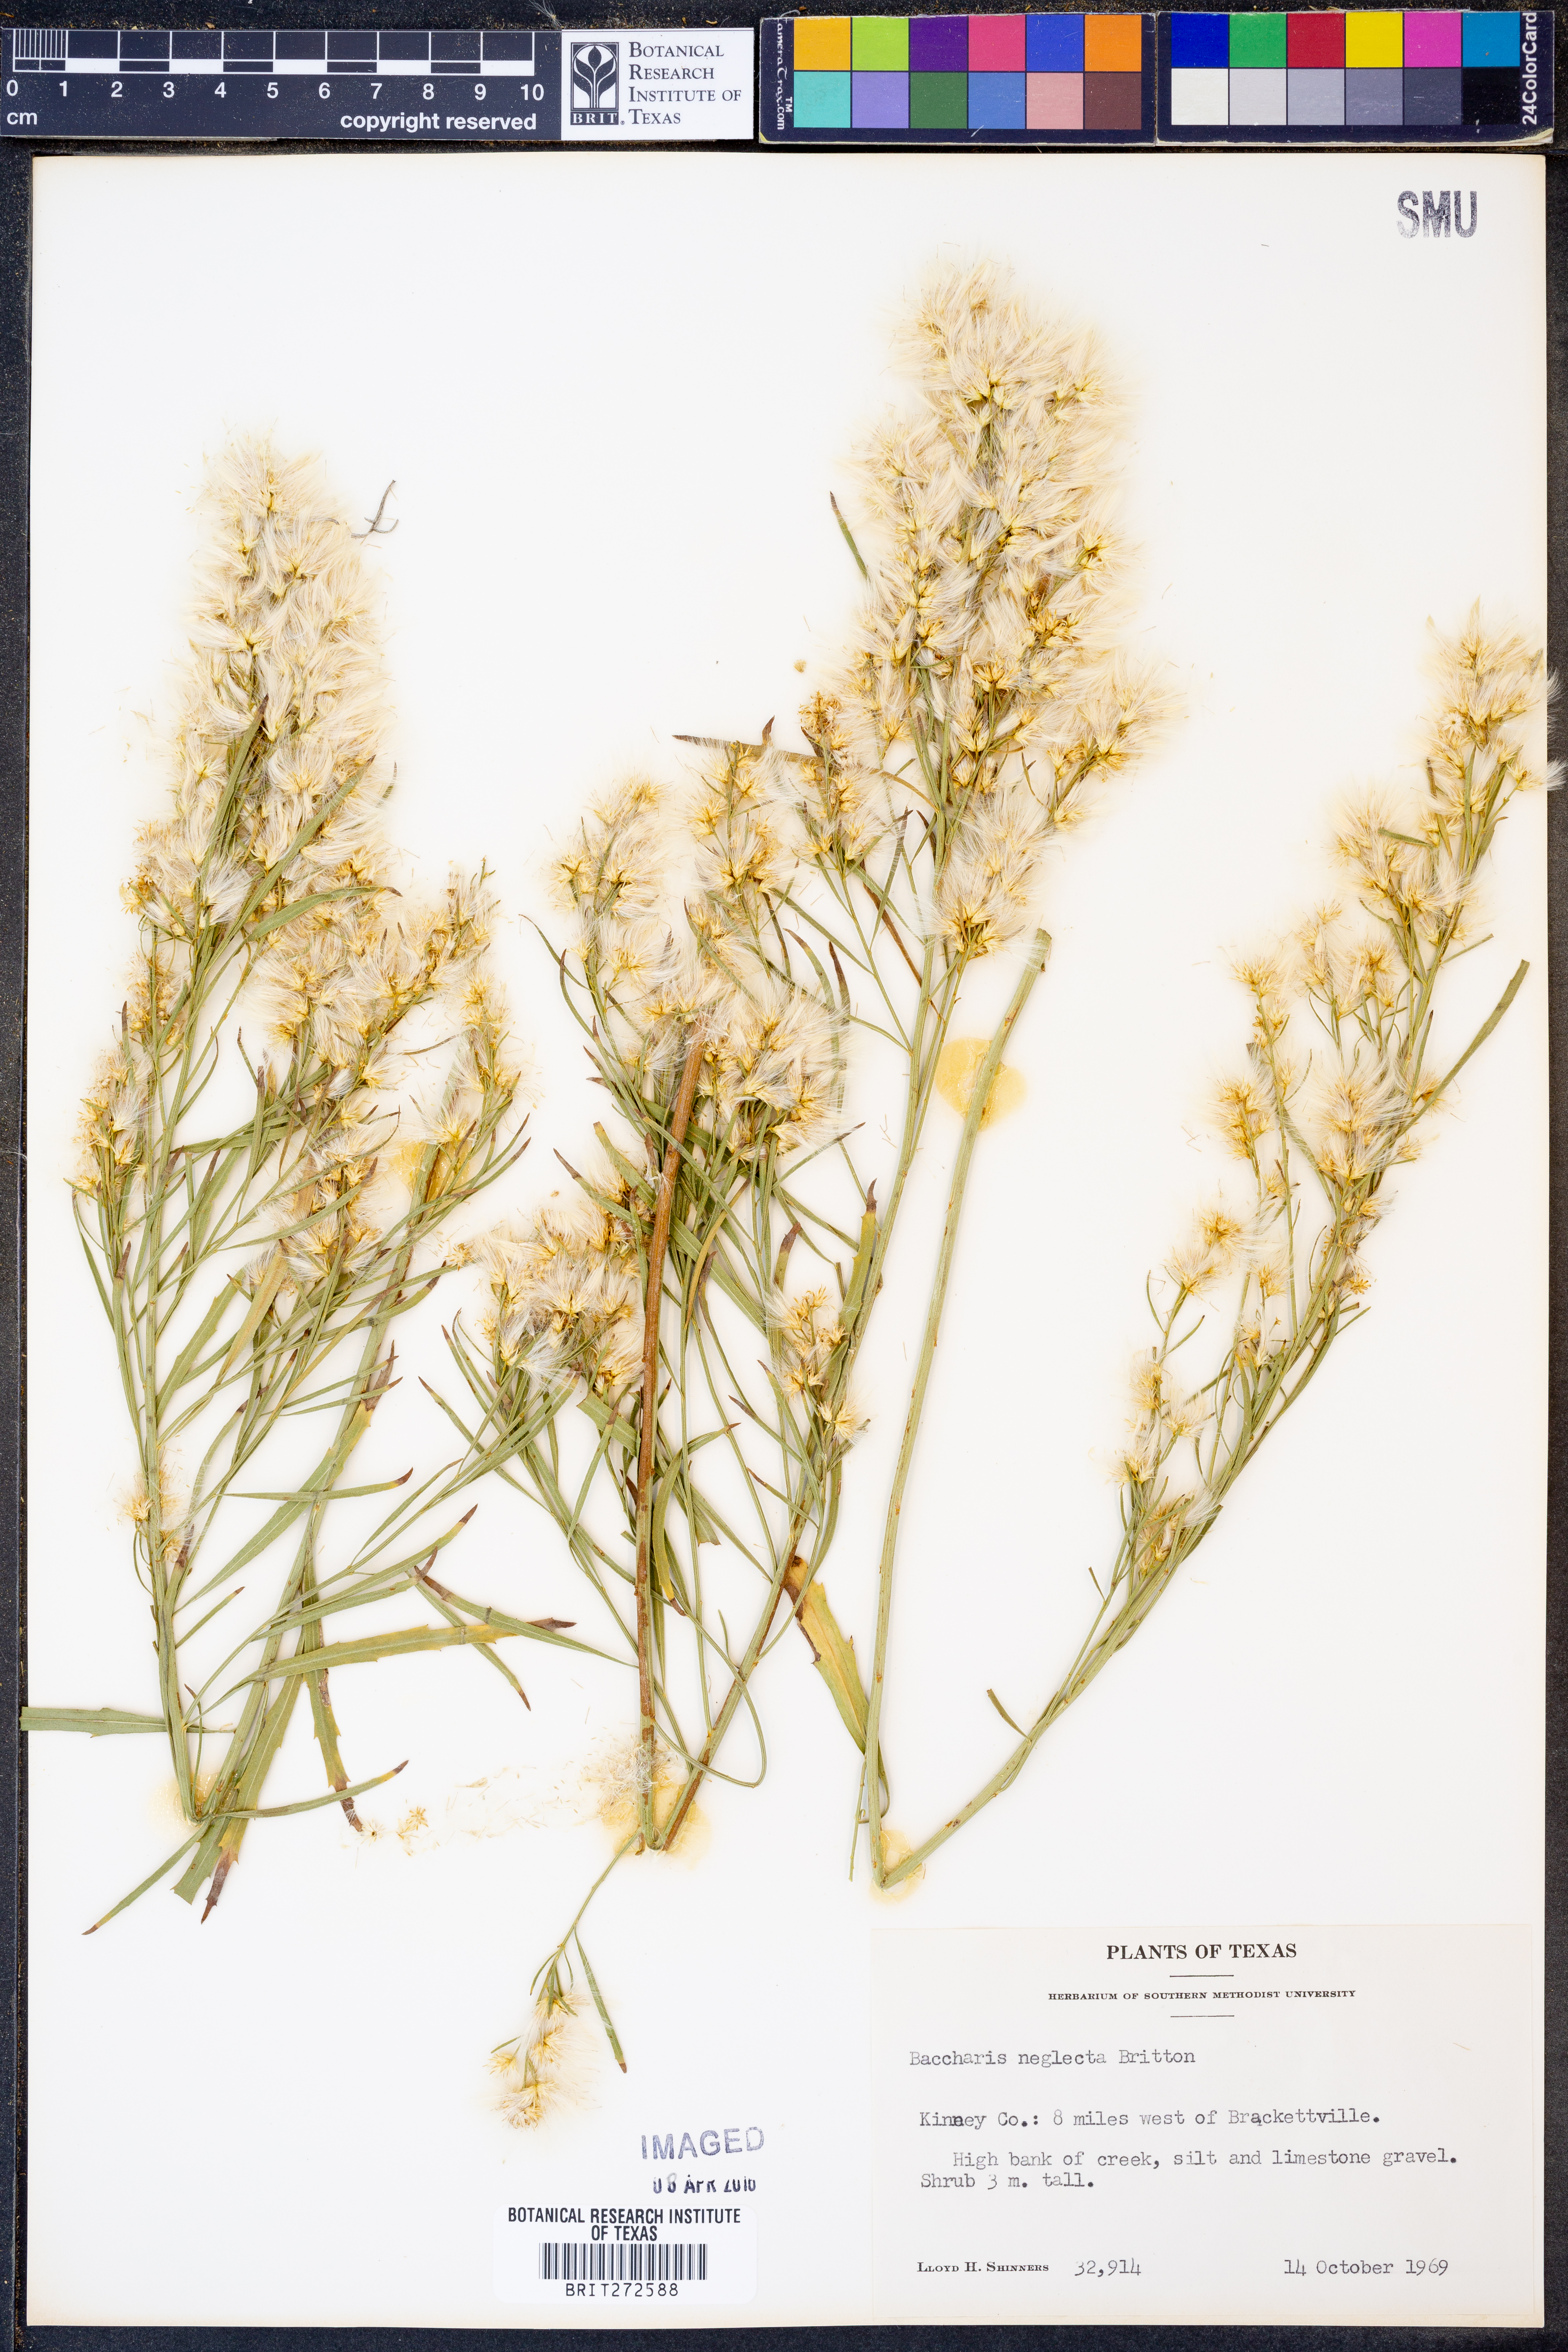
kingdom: Plantae
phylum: Tracheophyta
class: Magnoliopsida
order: Asterales
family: Asteraceae
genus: Baccharis
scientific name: Baccharis neglecta
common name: Roosevelt-weed
